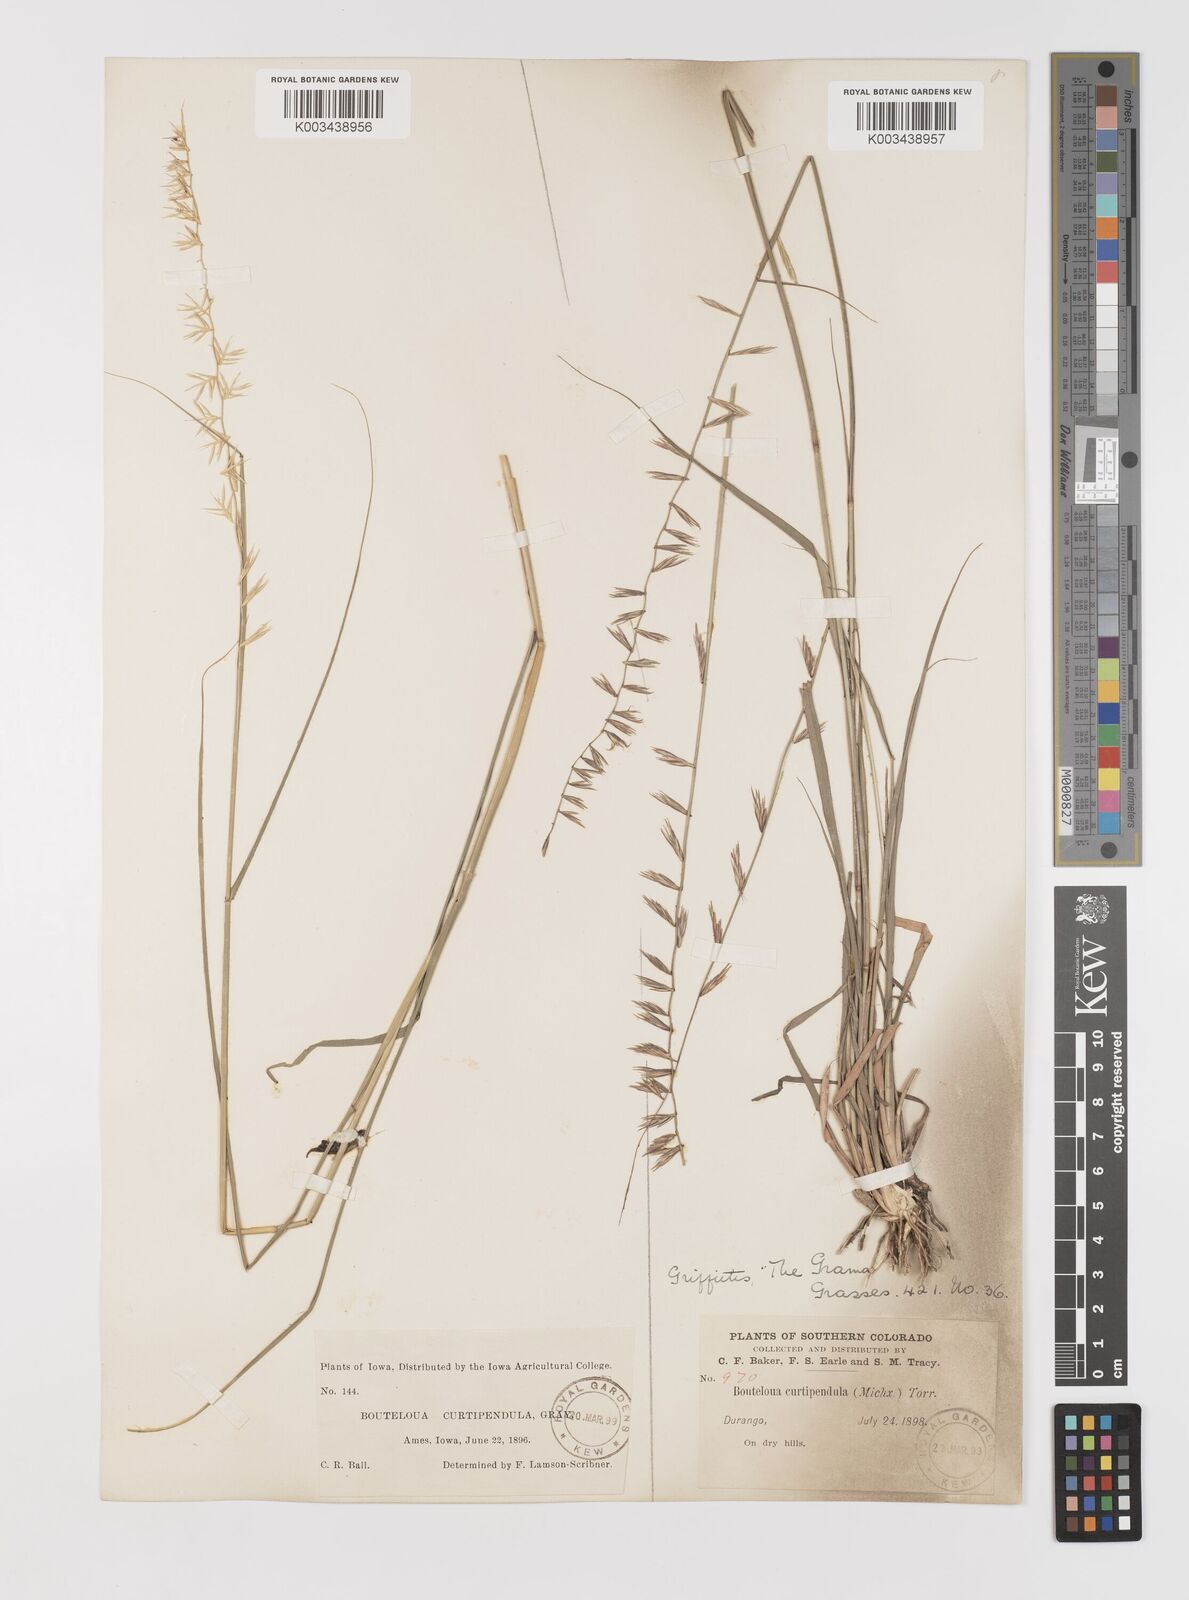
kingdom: Plantae
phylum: Tracheophyta
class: Liliopsida
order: Poales
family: Poaceae
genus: Bouteloua
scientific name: Bouteloua curtipendula
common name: Side-oats grama
